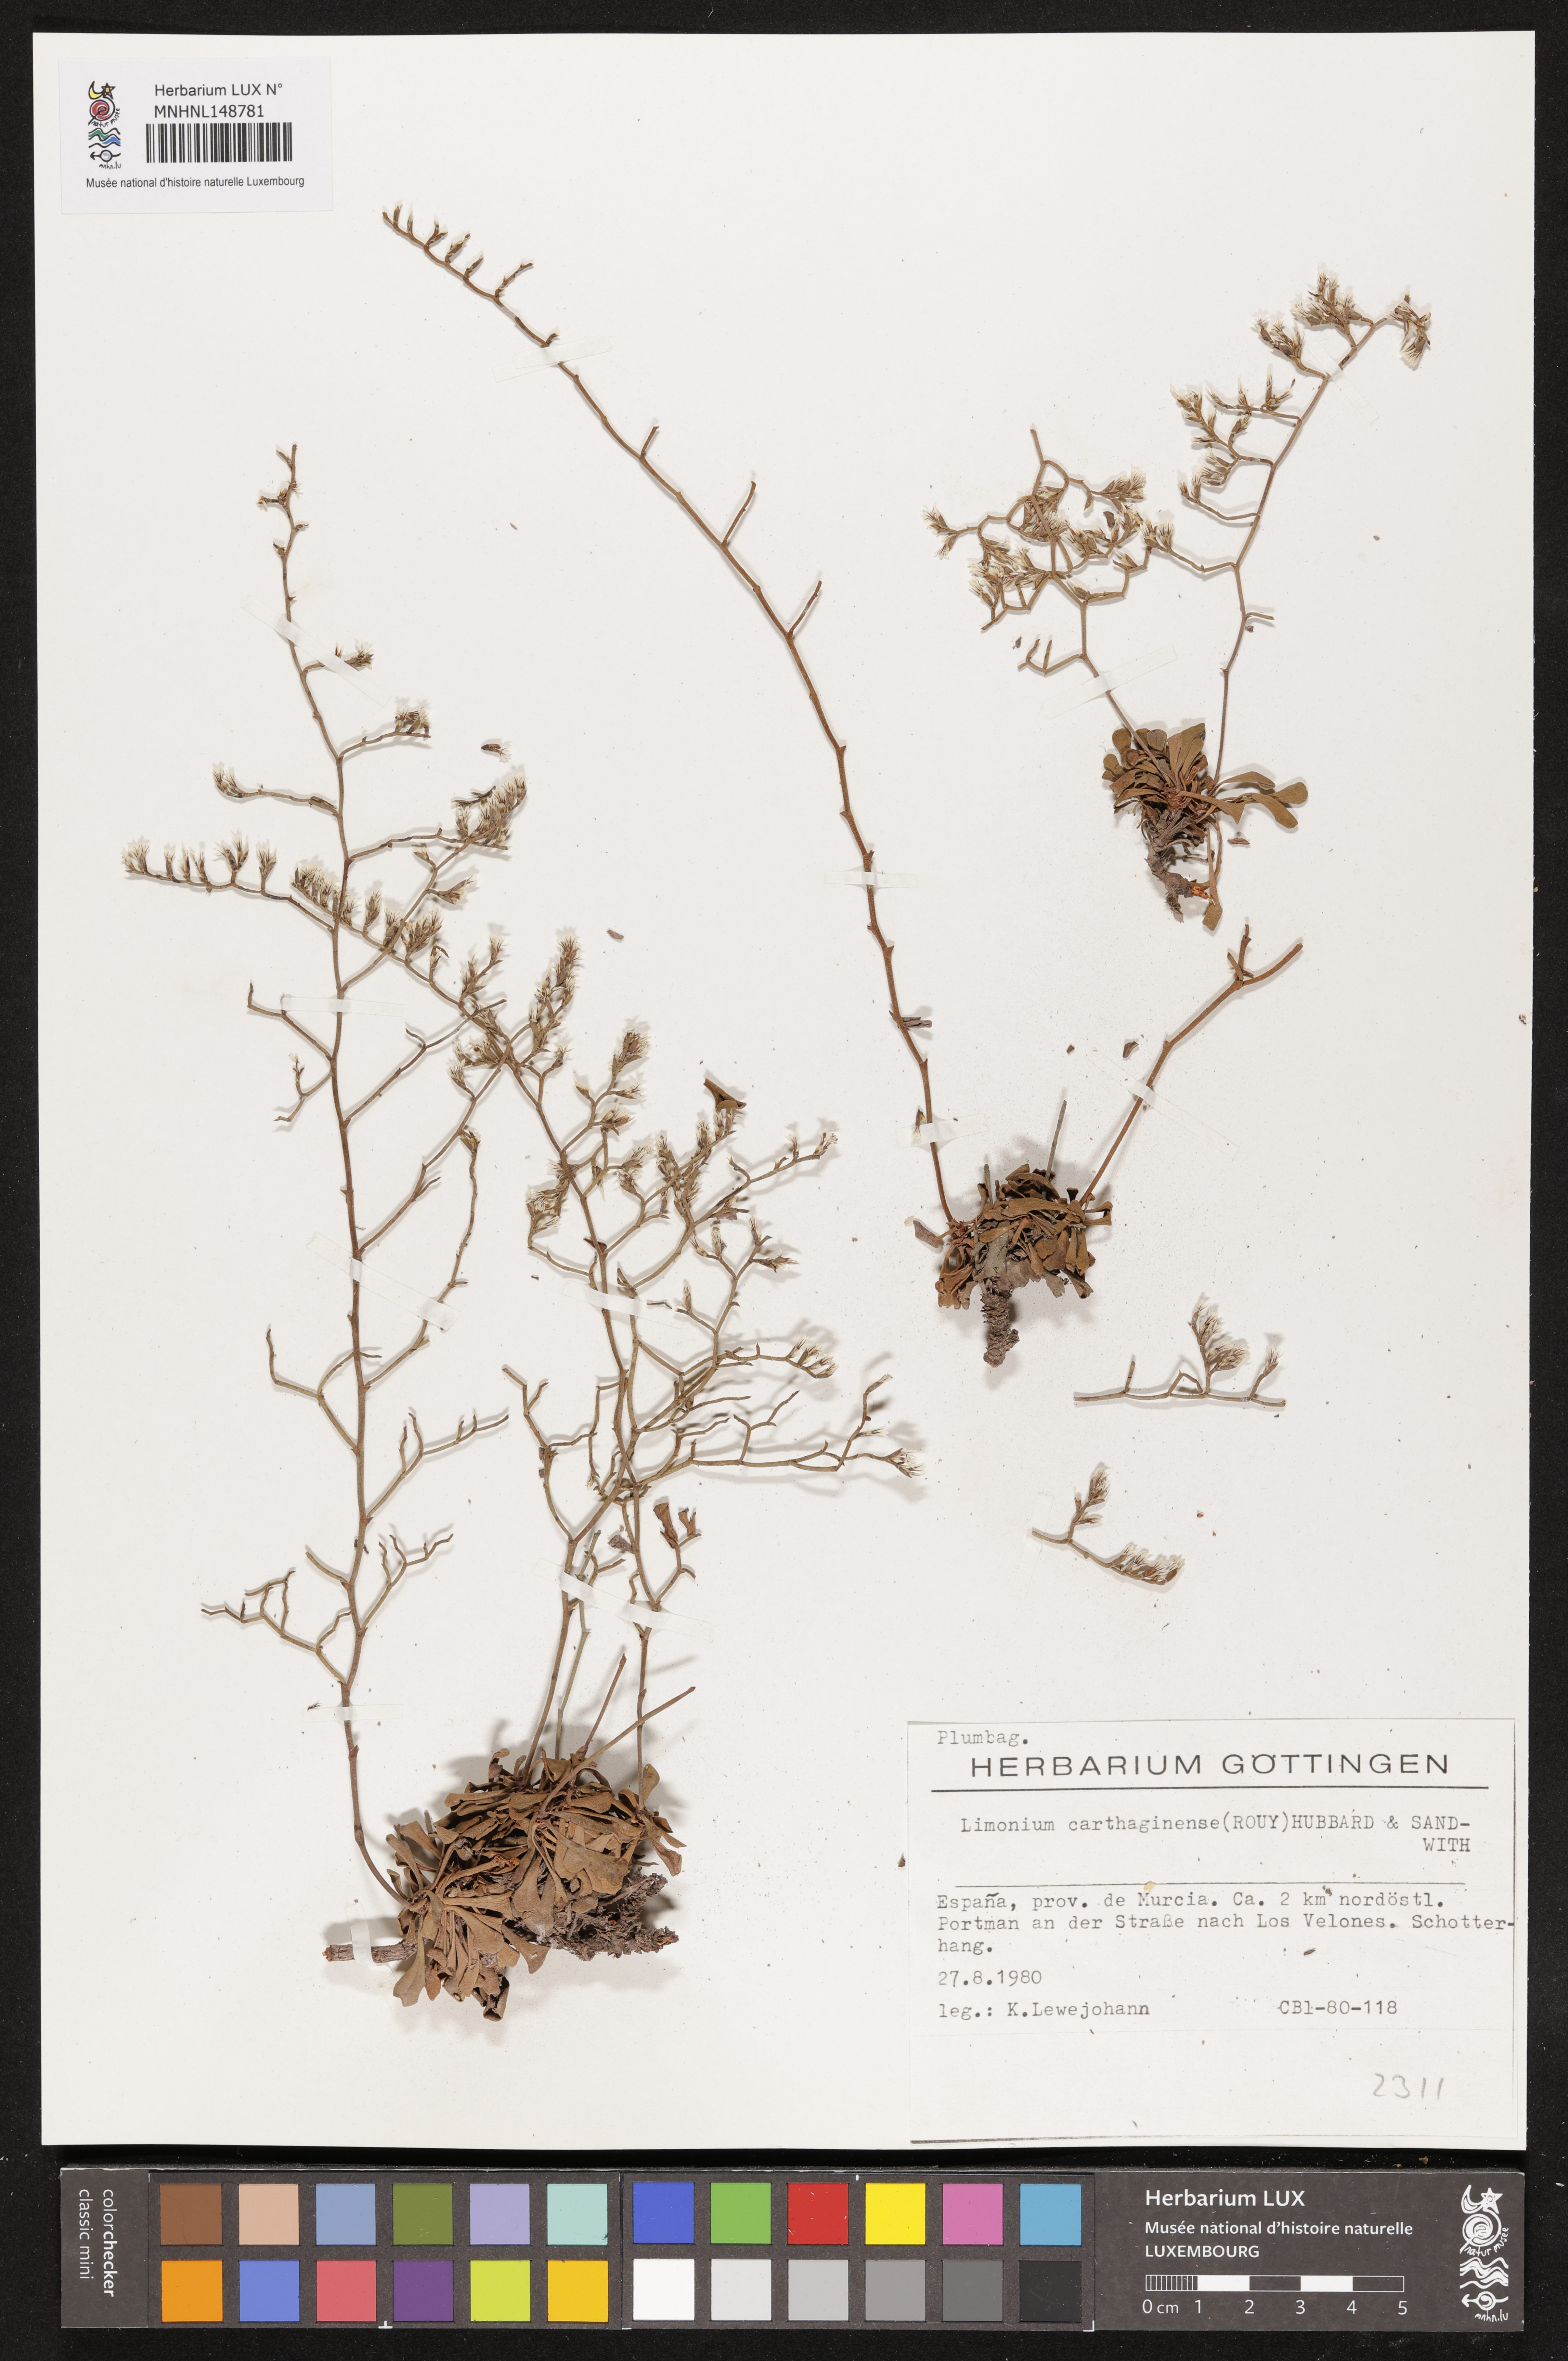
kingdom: Plantae
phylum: Tracheophyta
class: Magnoliopsida
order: Caryophyllales
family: Plumbaginaceae
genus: Limonium
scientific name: Limonium carthaginense
